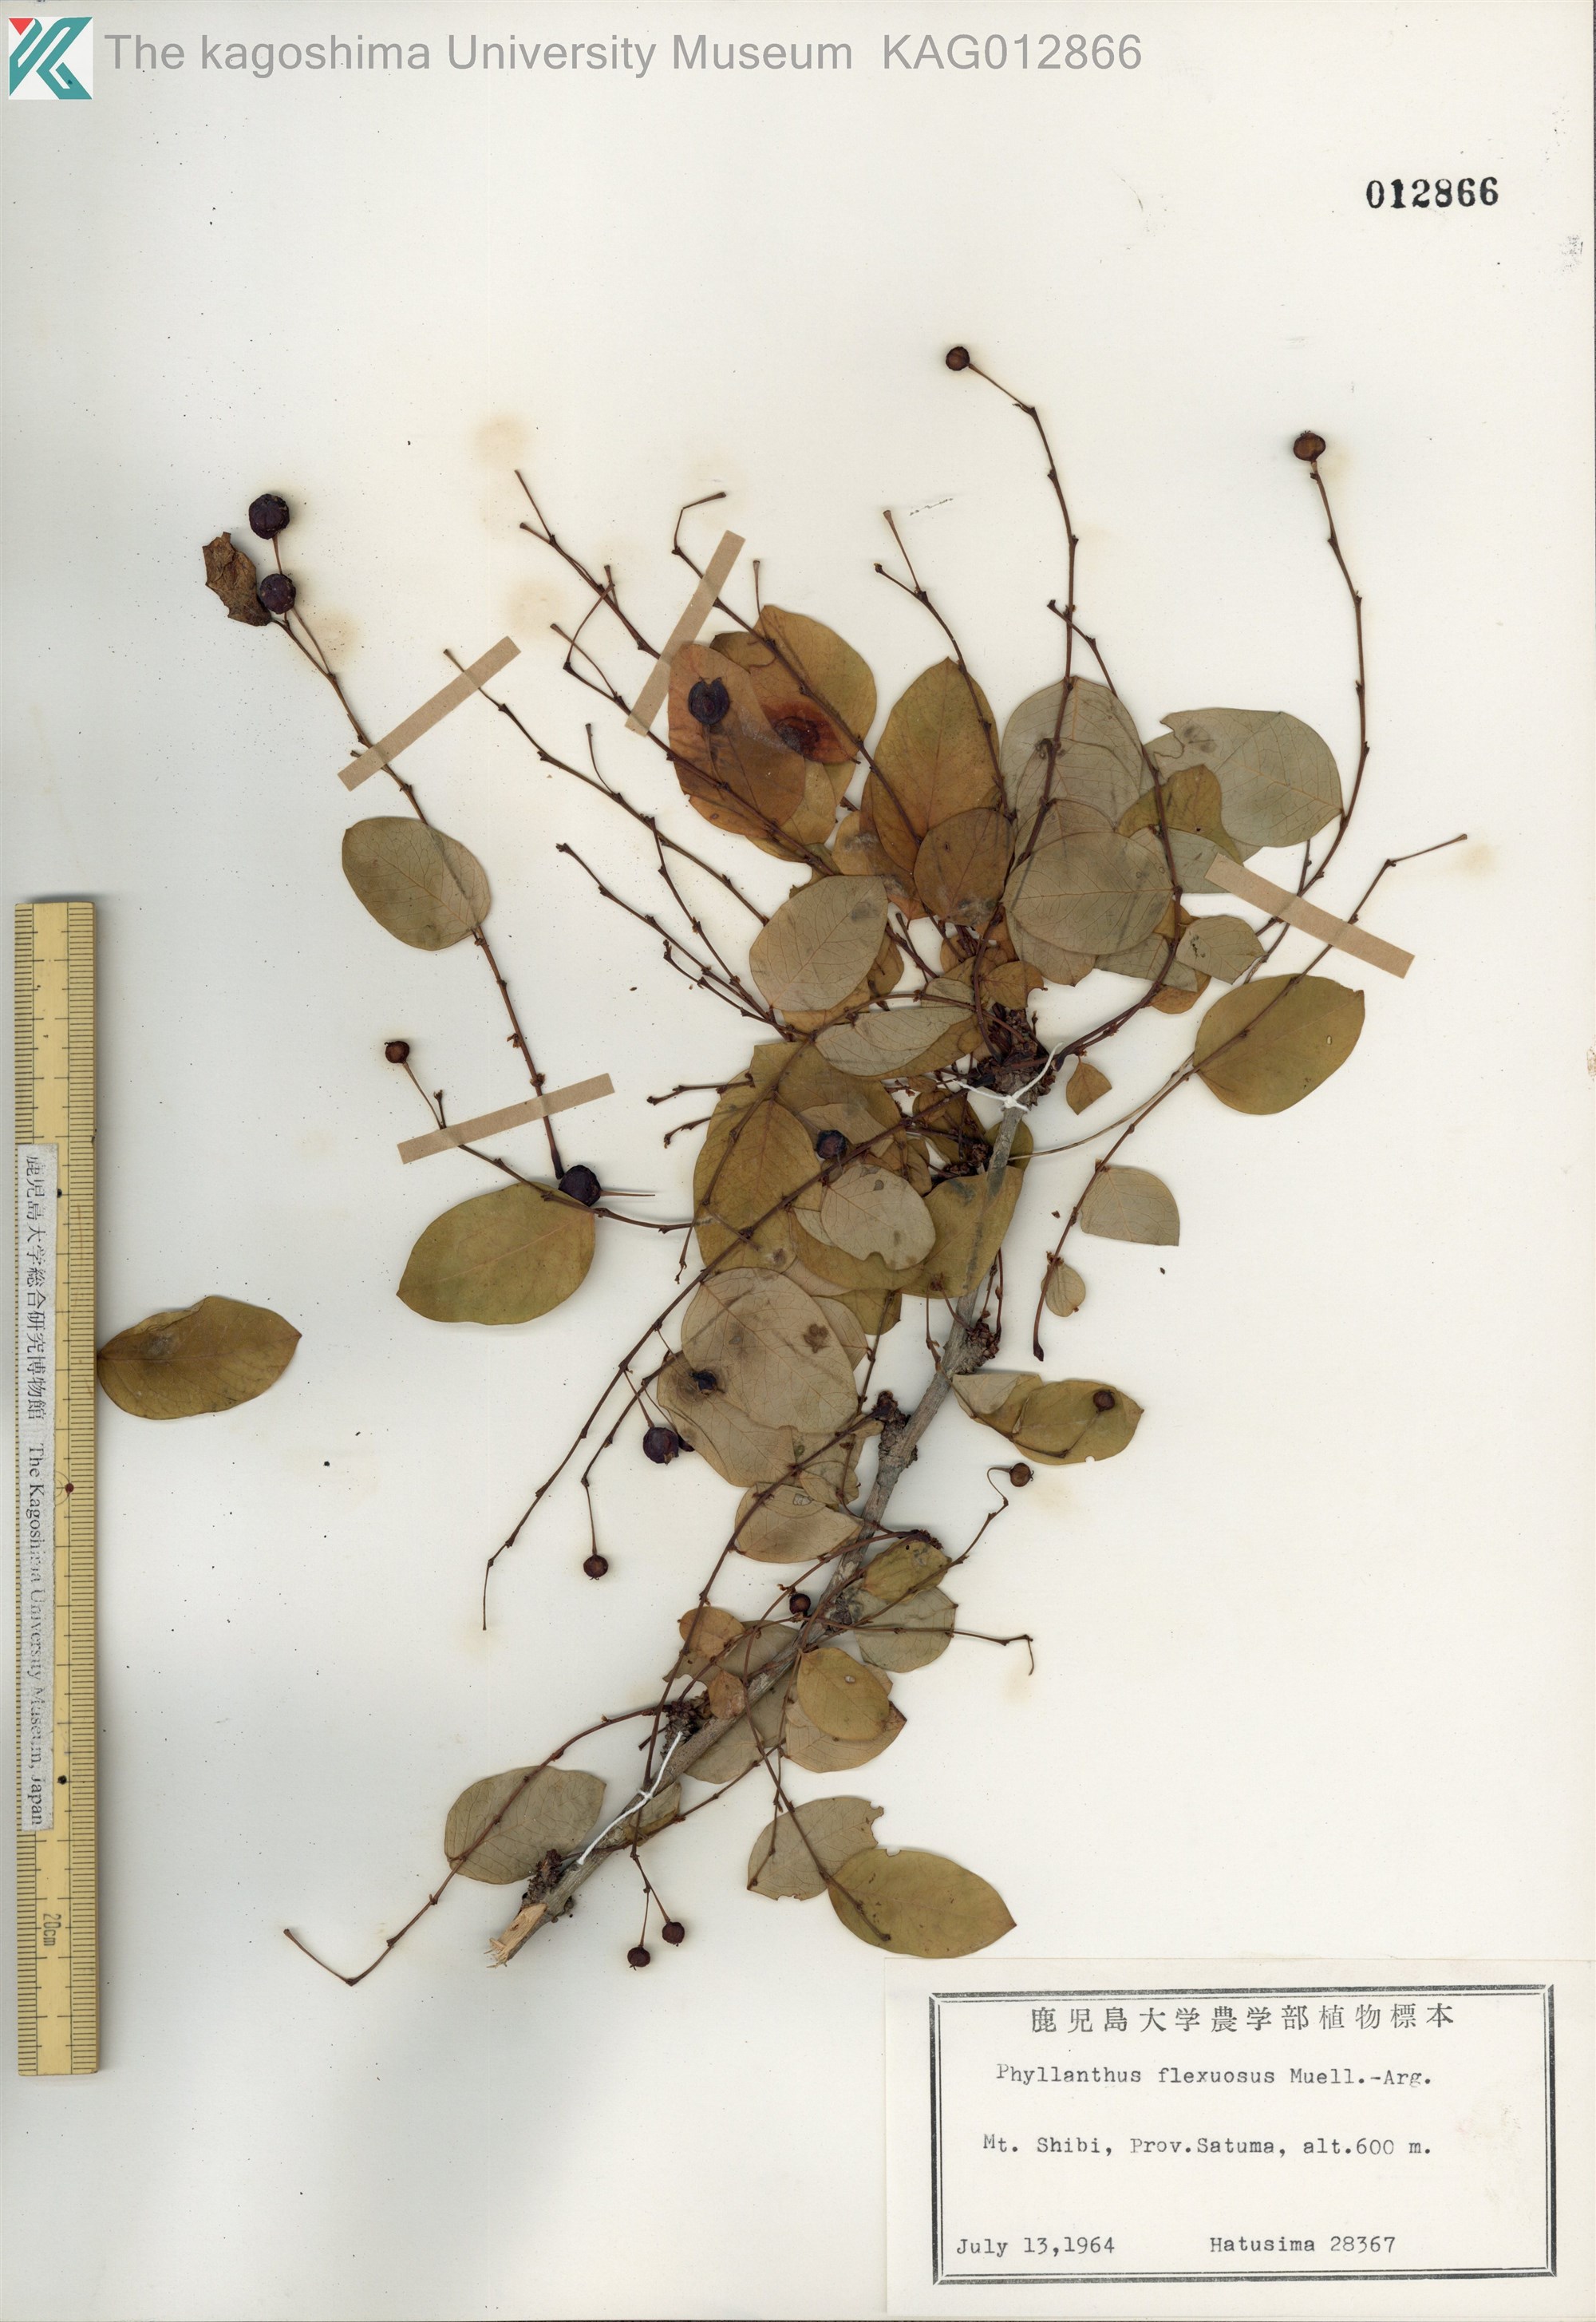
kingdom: Plantae
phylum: Tracheophyta
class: Magnoliopsida
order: Malpighiales
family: Phyllanthaceae
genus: Phyllanthus
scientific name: Phyllanthus flexuosus
